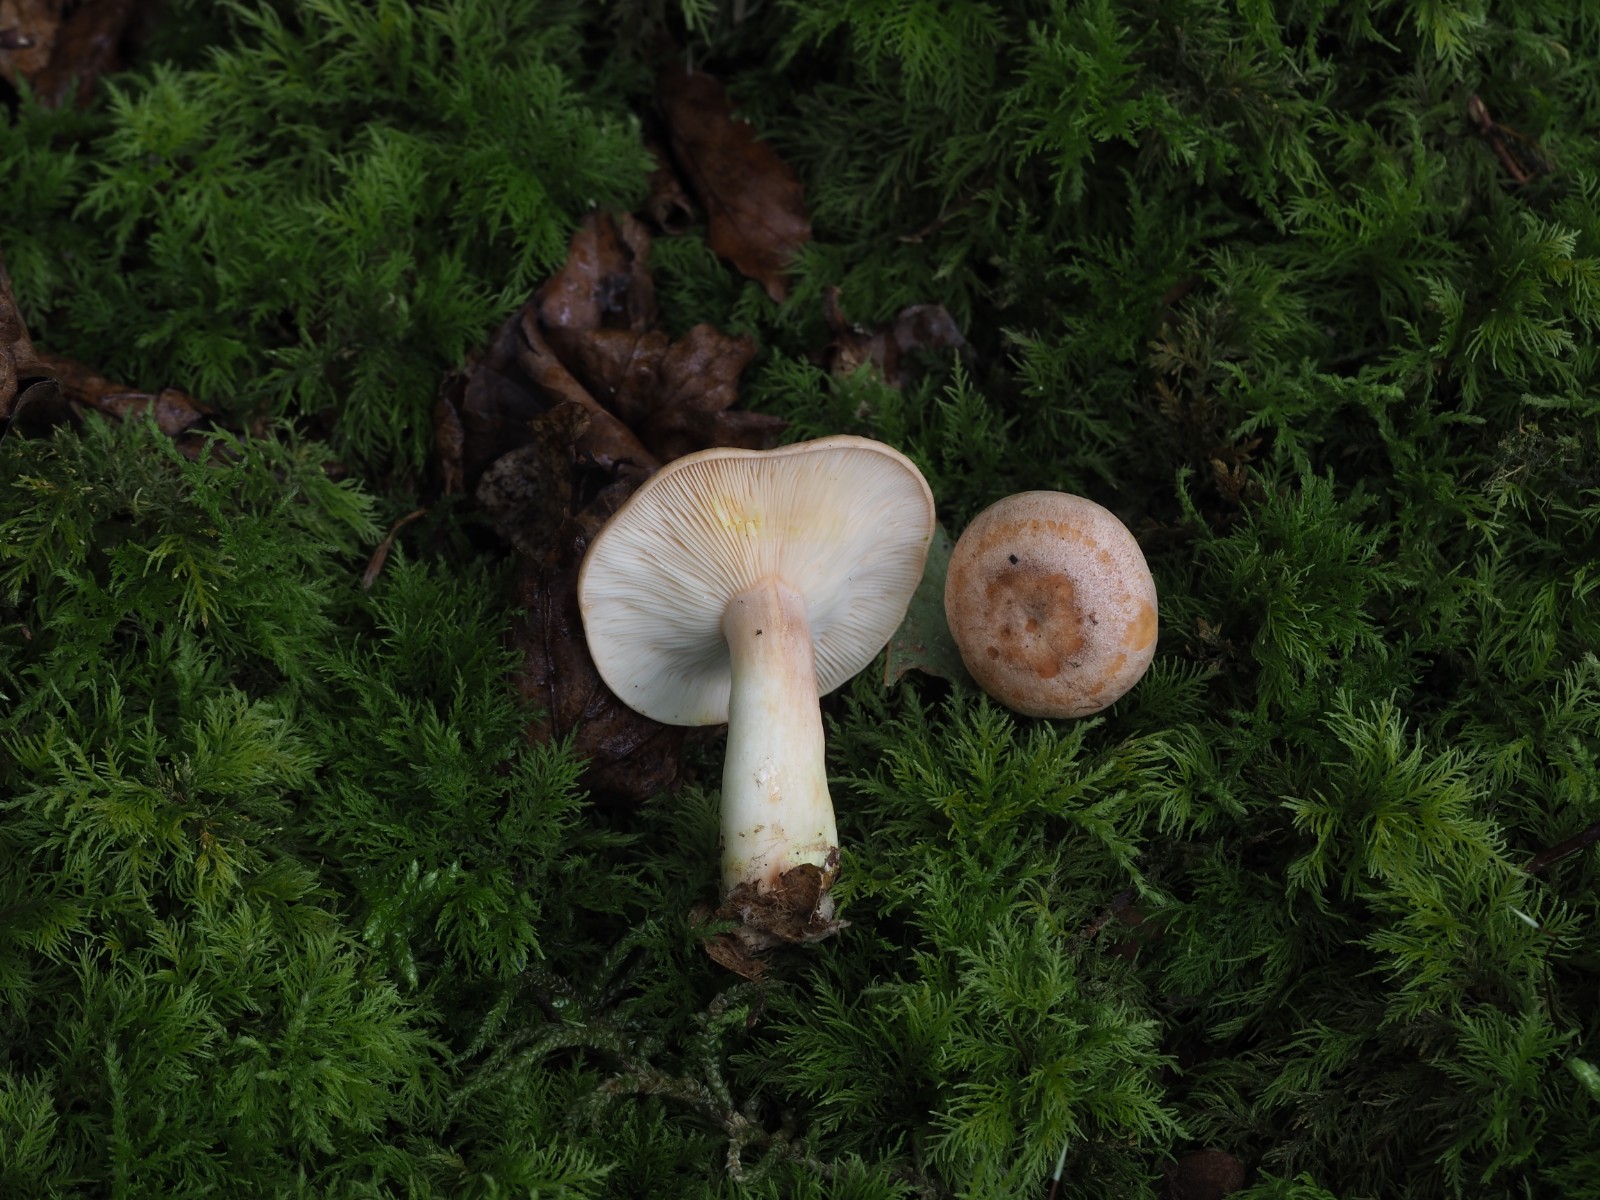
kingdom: Fungi
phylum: Basidiomycota
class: Agaricomycetes
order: Russulales
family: Russulaceae
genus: Lactarius
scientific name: Lactarius chrysorrheus
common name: svovlmælket mælkehat
